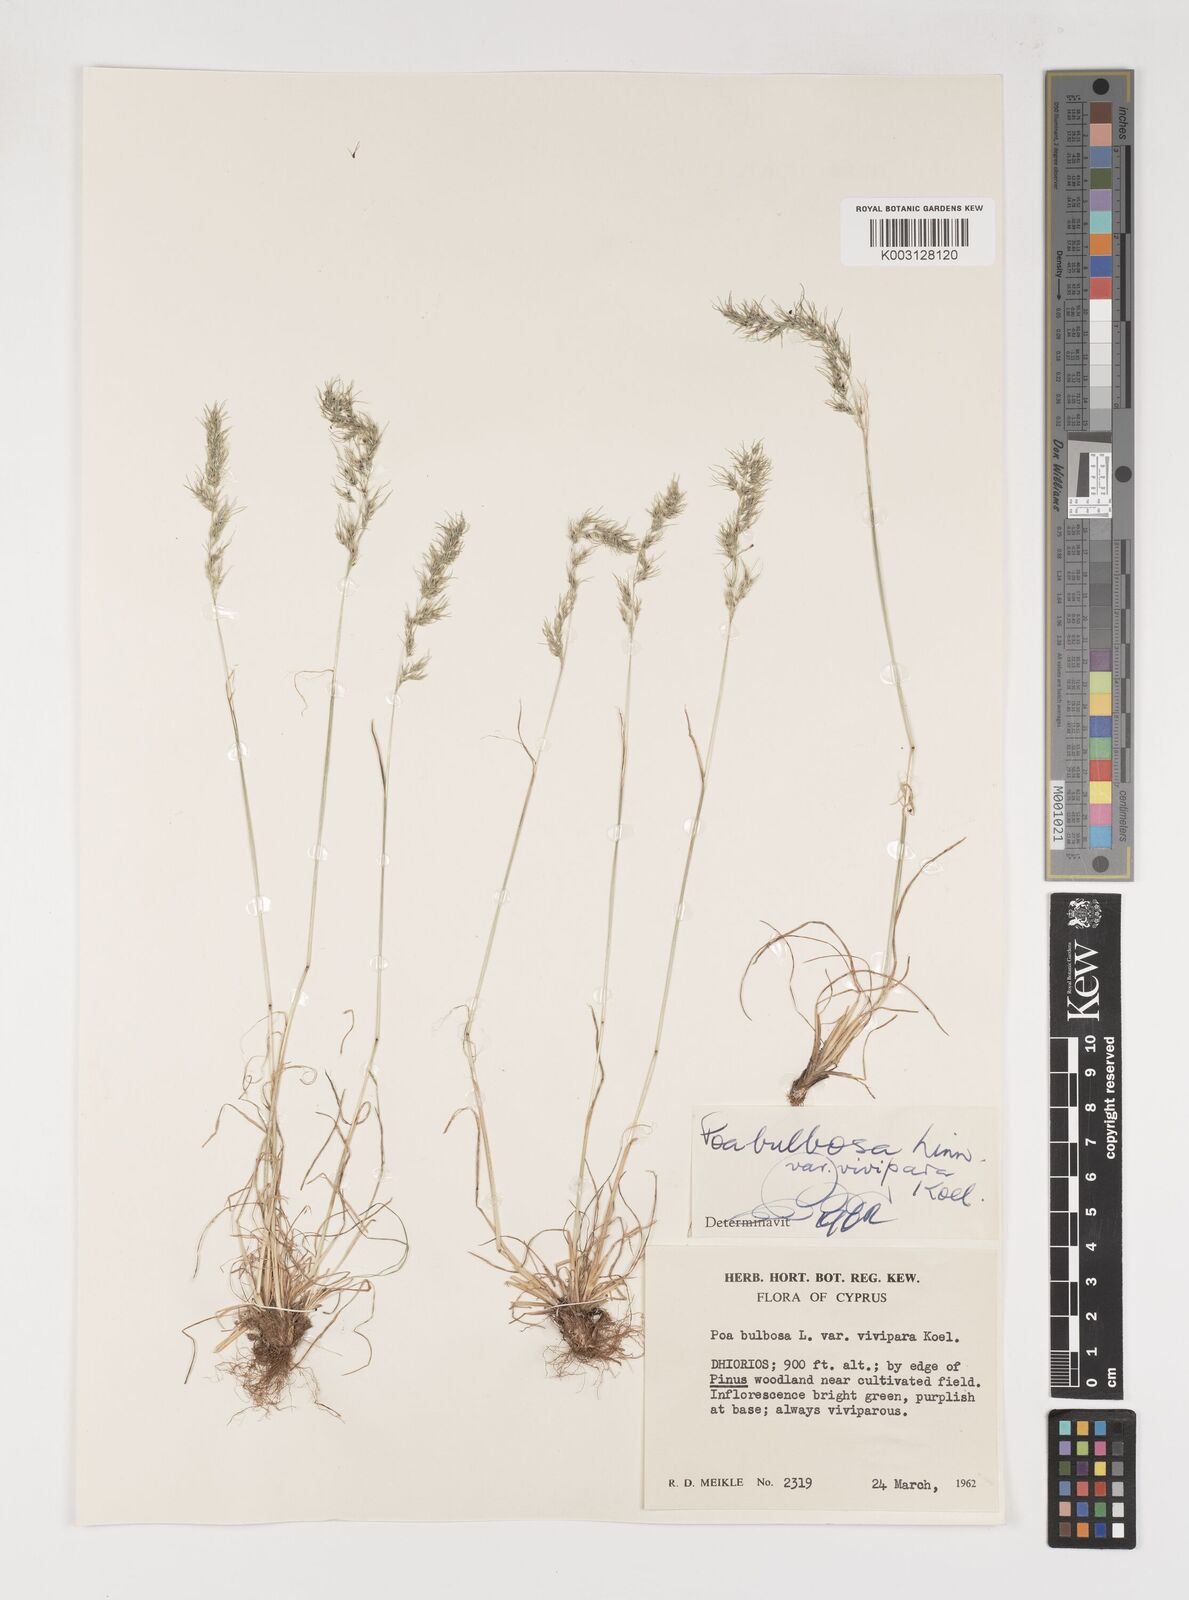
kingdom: Plantae
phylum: Tracheophyta
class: Liliopsida
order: Poales
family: Poaceae
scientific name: Poaceae
